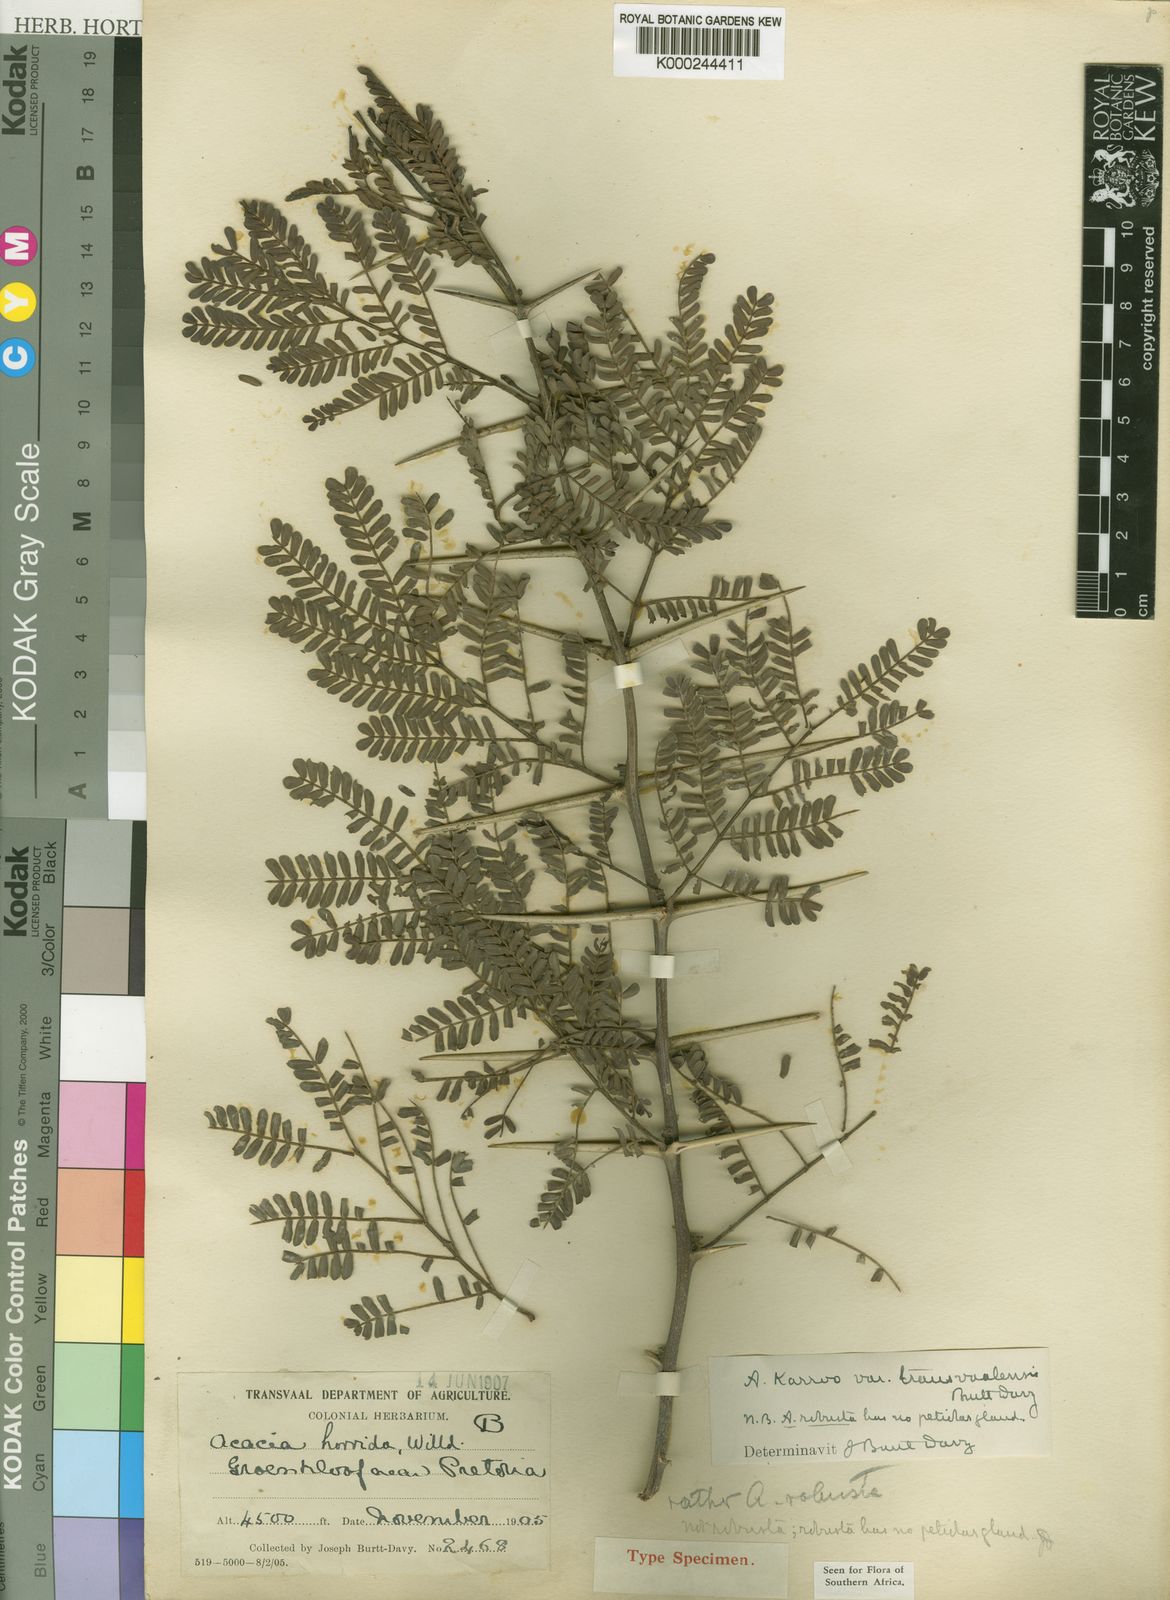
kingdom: Plantae
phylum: Tracheophyta
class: Magnoliopsida
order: Fabales
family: Fabaceae
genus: Vachellia
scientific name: Vachellia karroo
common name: Sweet thorn
